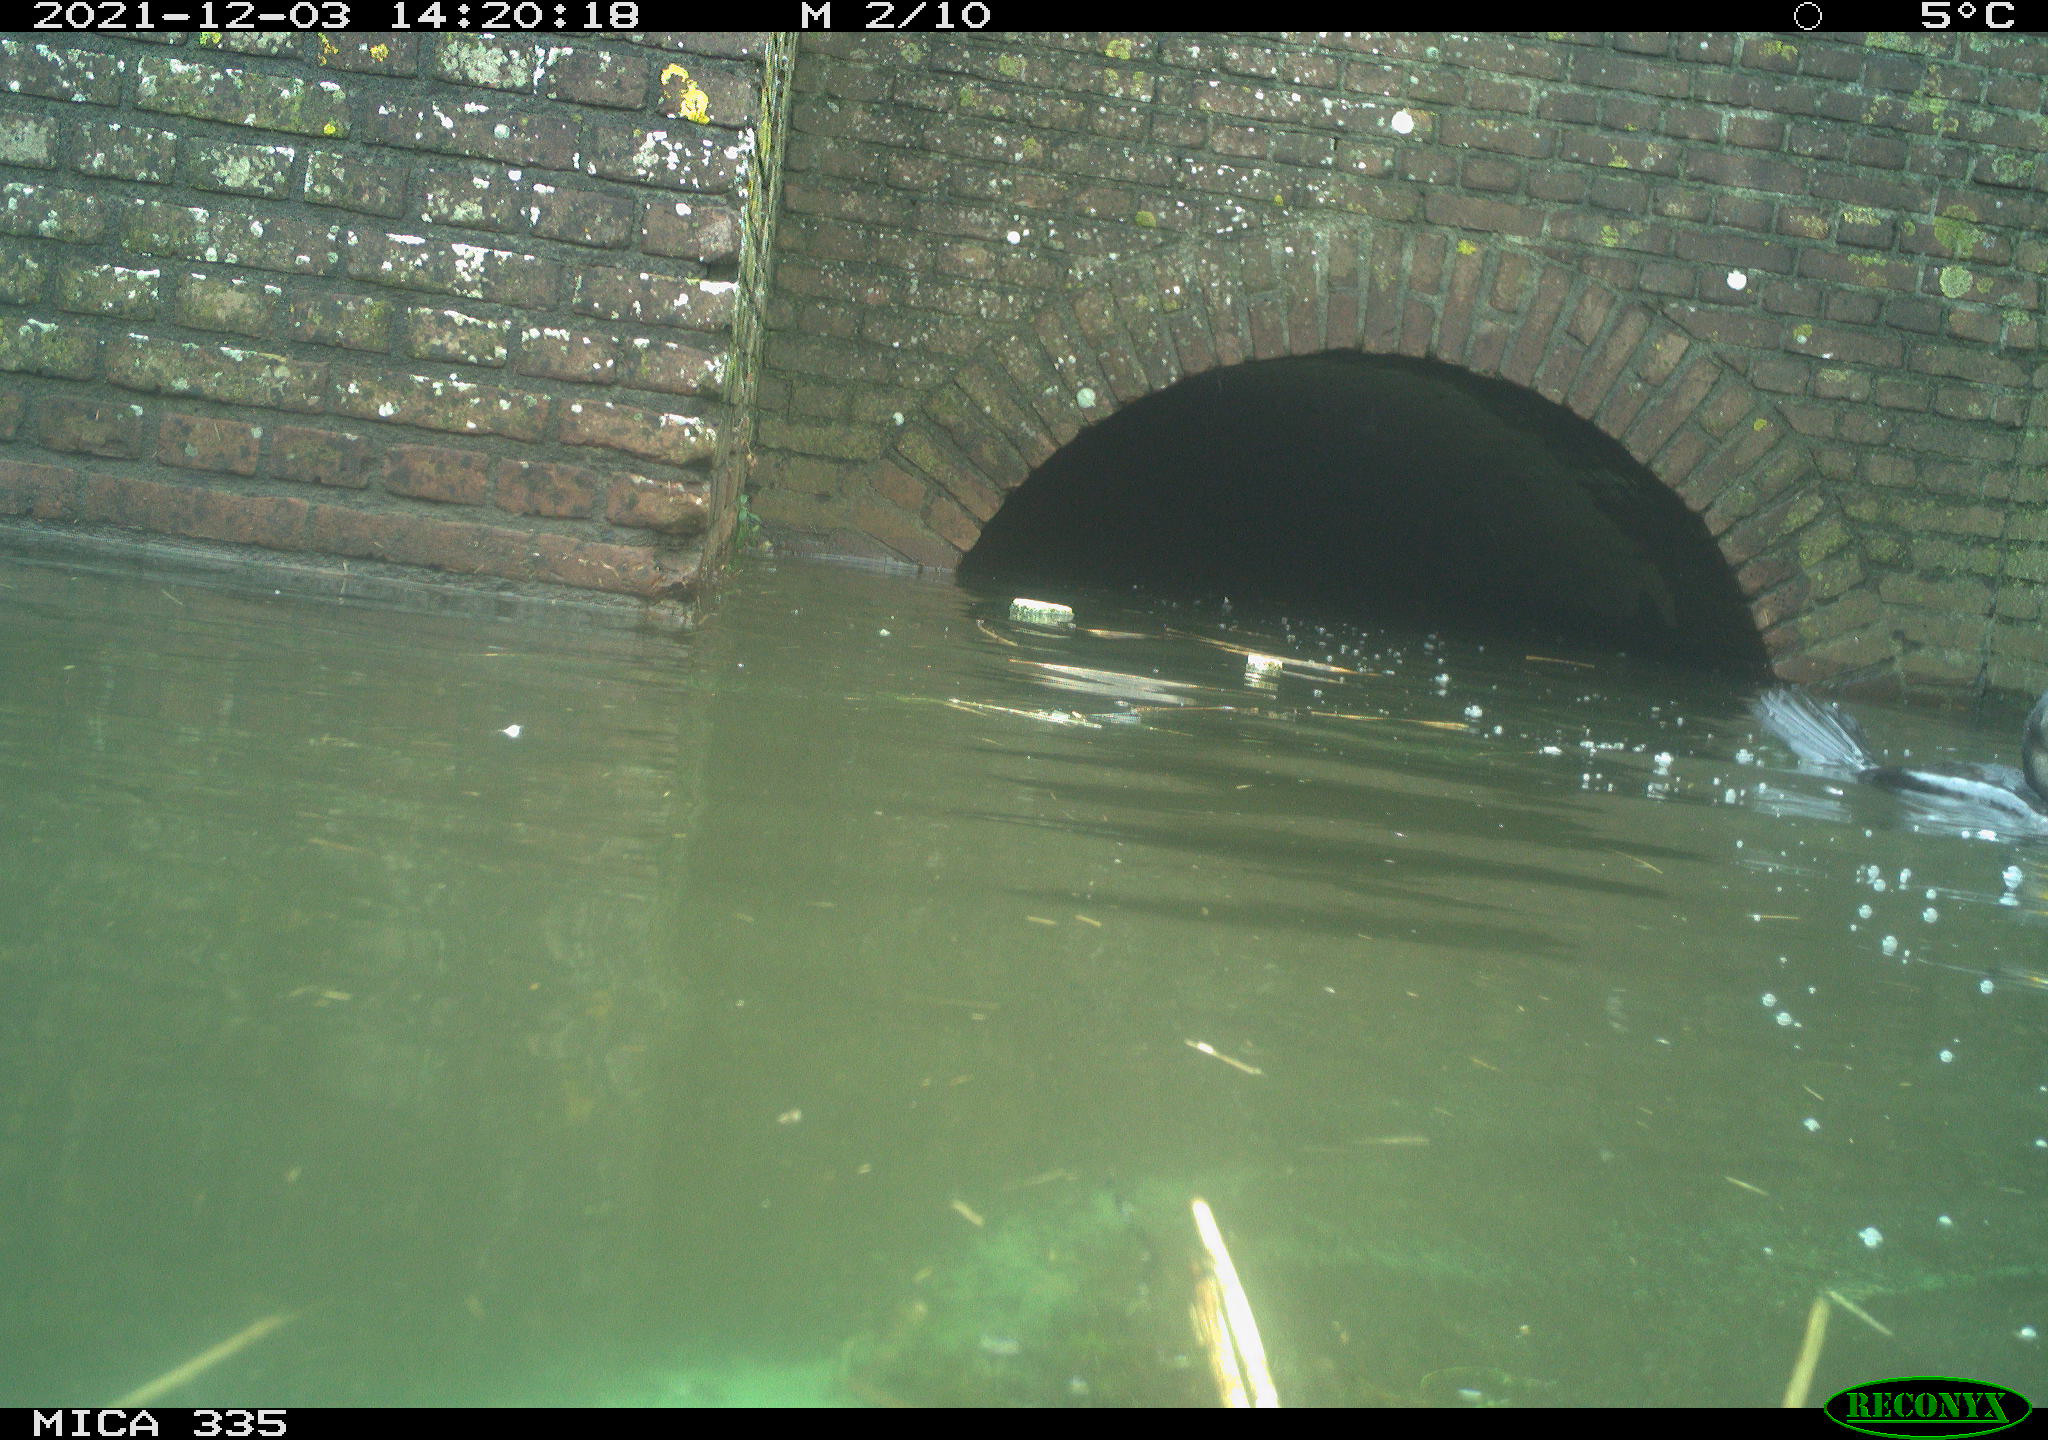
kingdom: Animalia
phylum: Chordata
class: Aves
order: Suliformes
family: Phalacrocoracidae
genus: Phalacrocorax
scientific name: Phalacrocorax carbo
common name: Great cormorant
